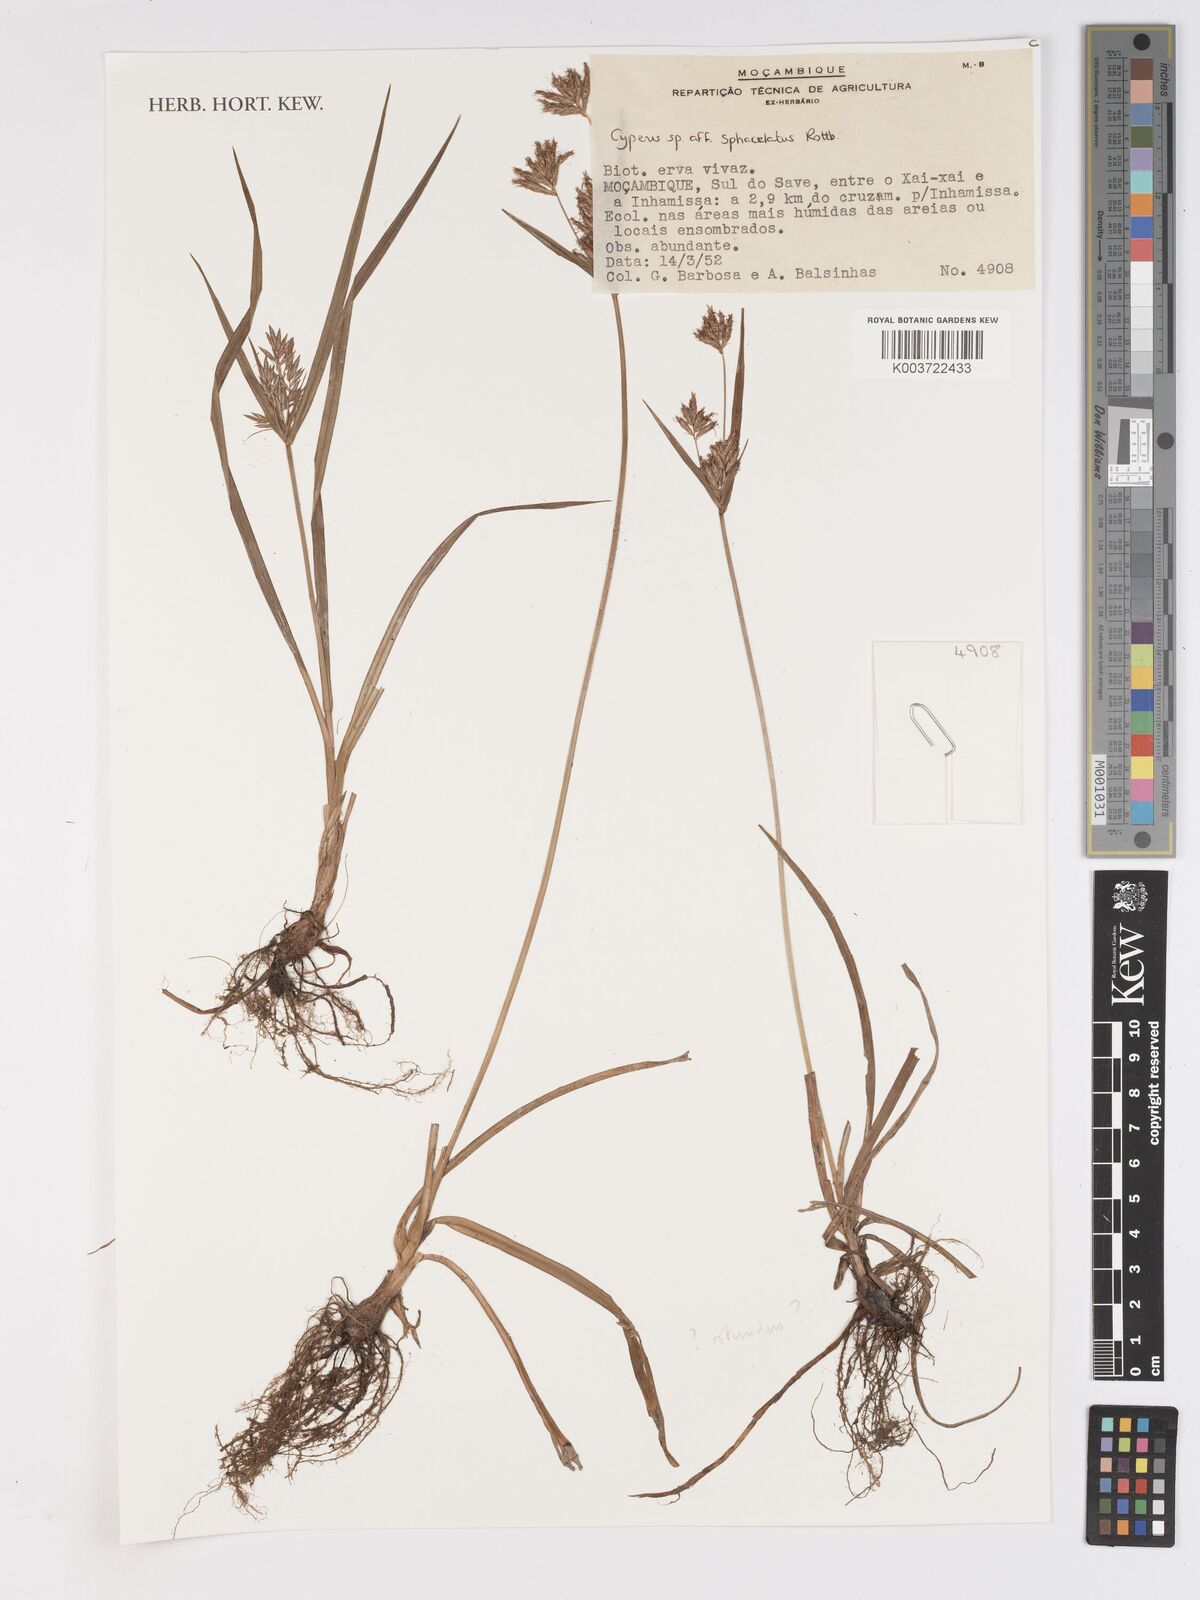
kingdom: Plantae
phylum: Tracheophyta
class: Liliopsida
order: Poales
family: Cyperaceae
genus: Cyperus
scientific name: Cyperus sphacelatus
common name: Roadside flatsedge
